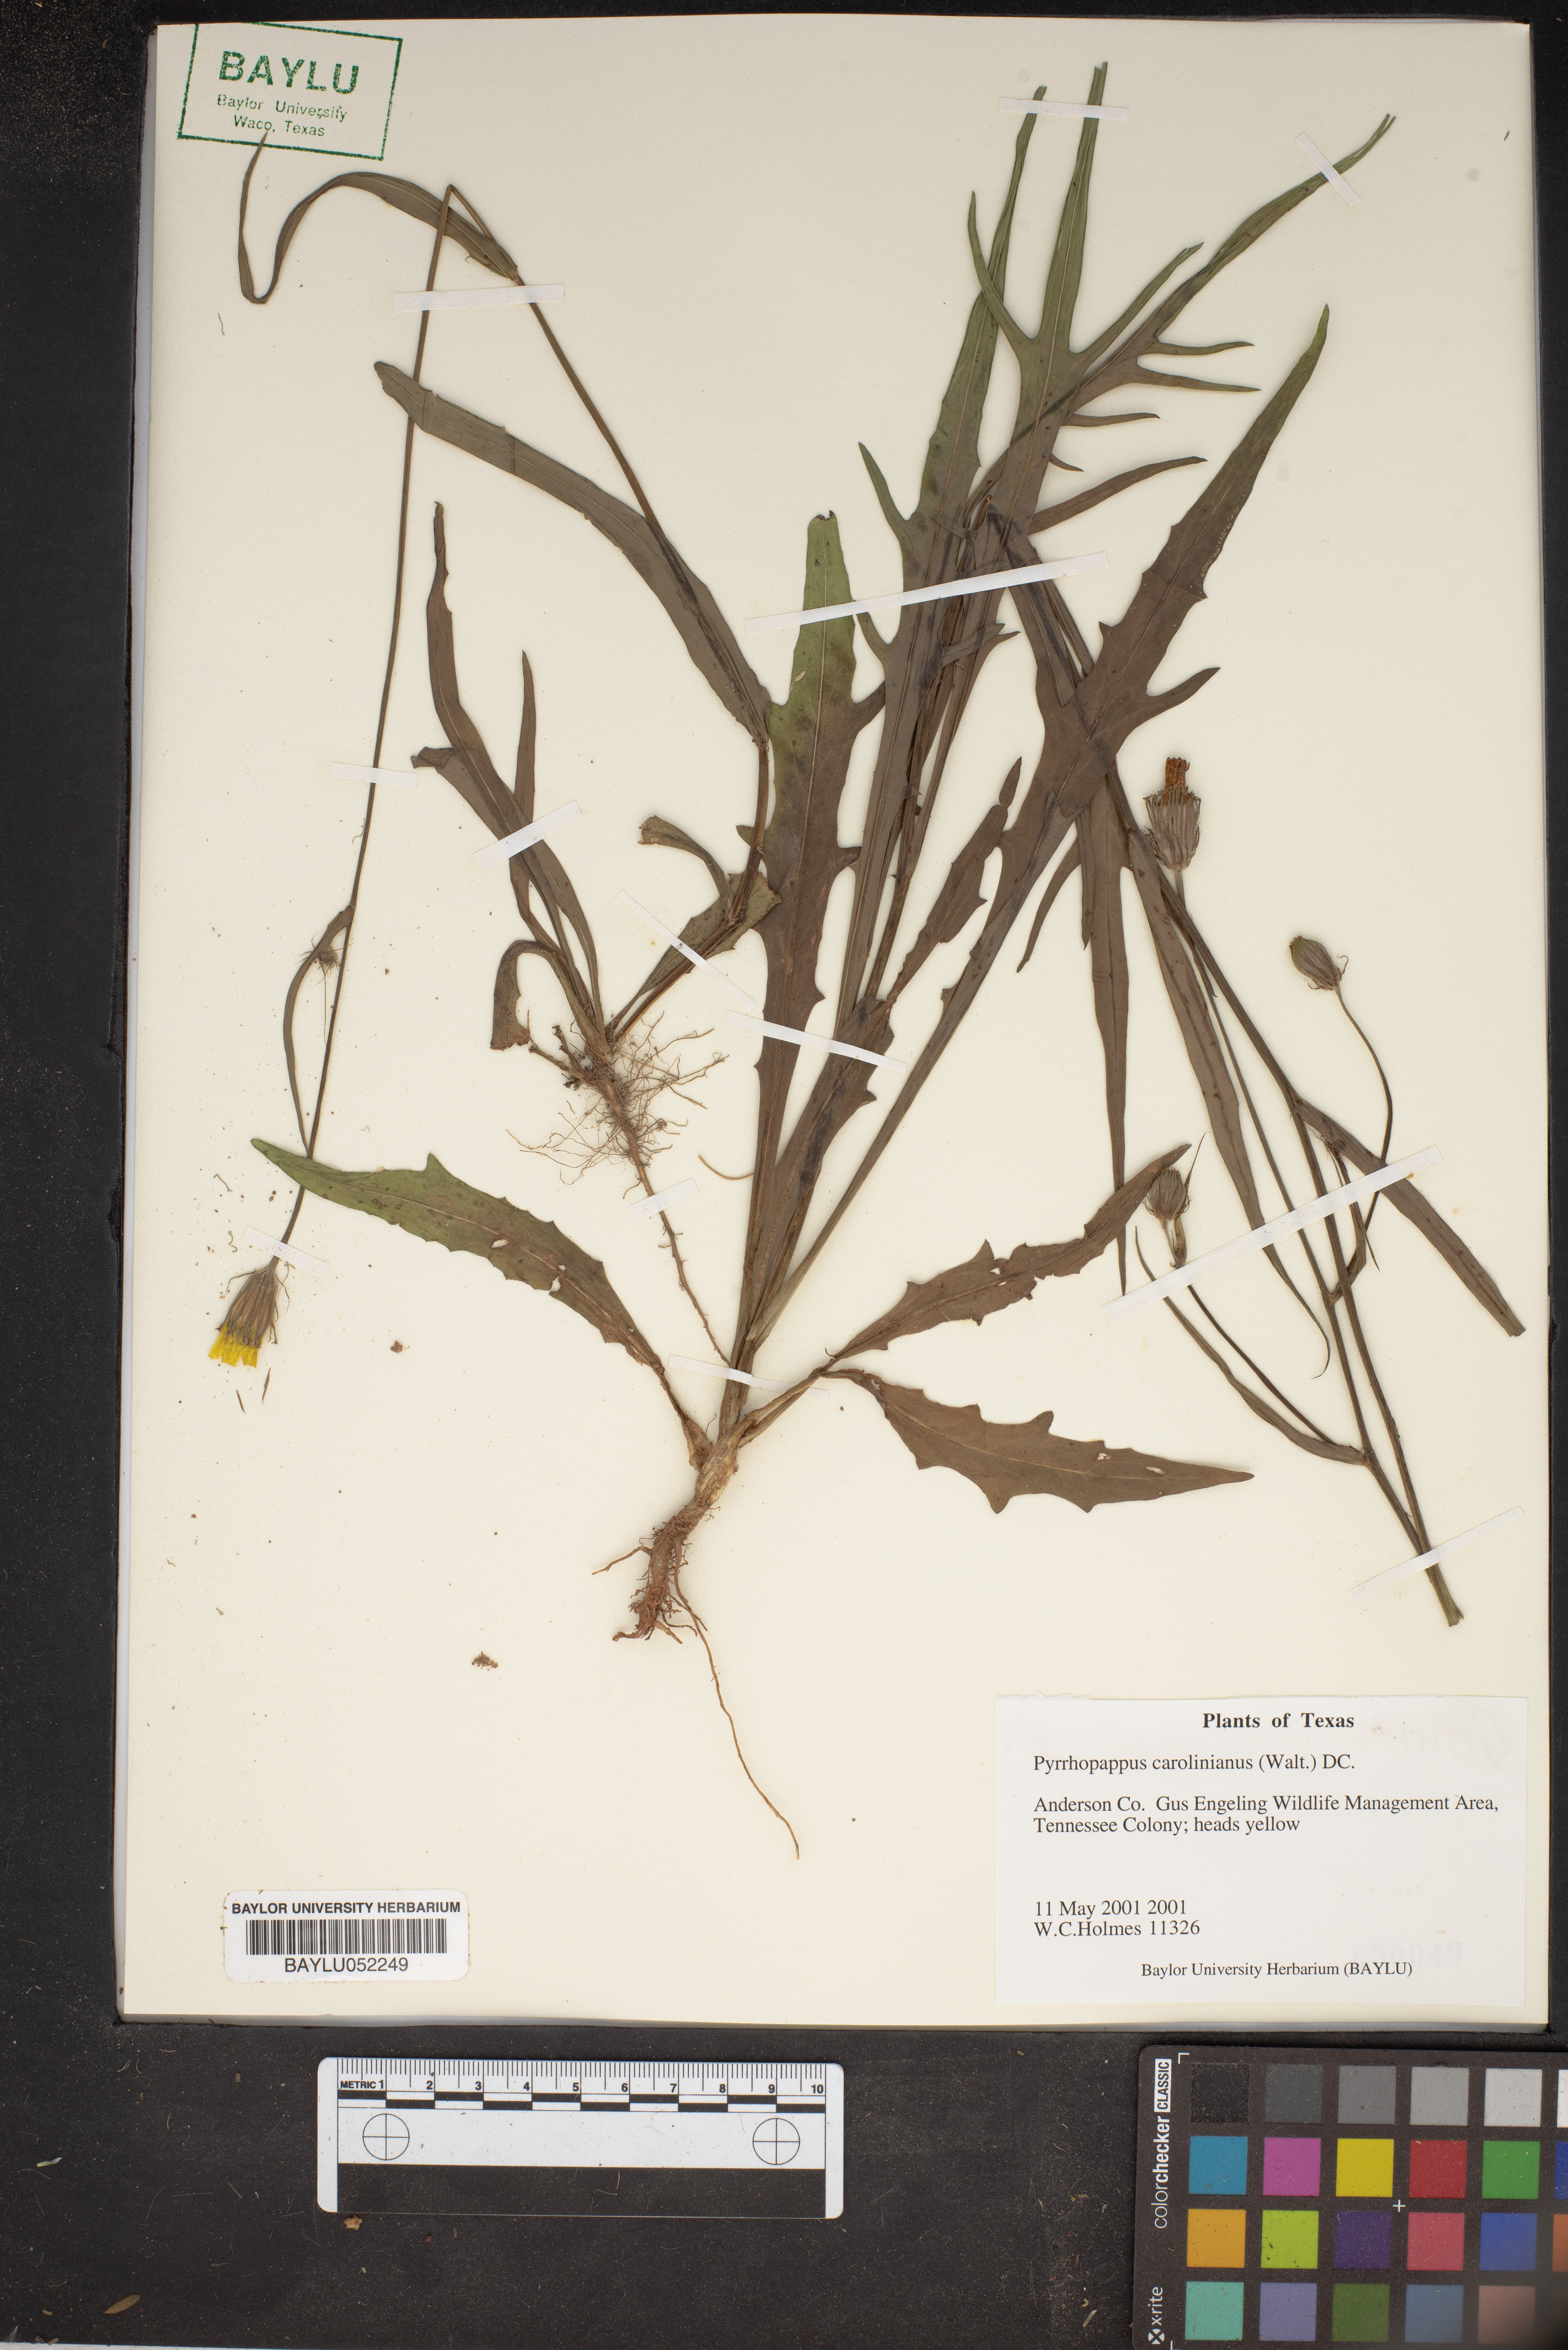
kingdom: Plantae
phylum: Tracheophyta
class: Magnoliopsida
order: Asterales
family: Asteraceae
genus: Pyrrhopappus
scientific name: Pyrrhopappus carolinianus
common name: Carolina desert-chicory
